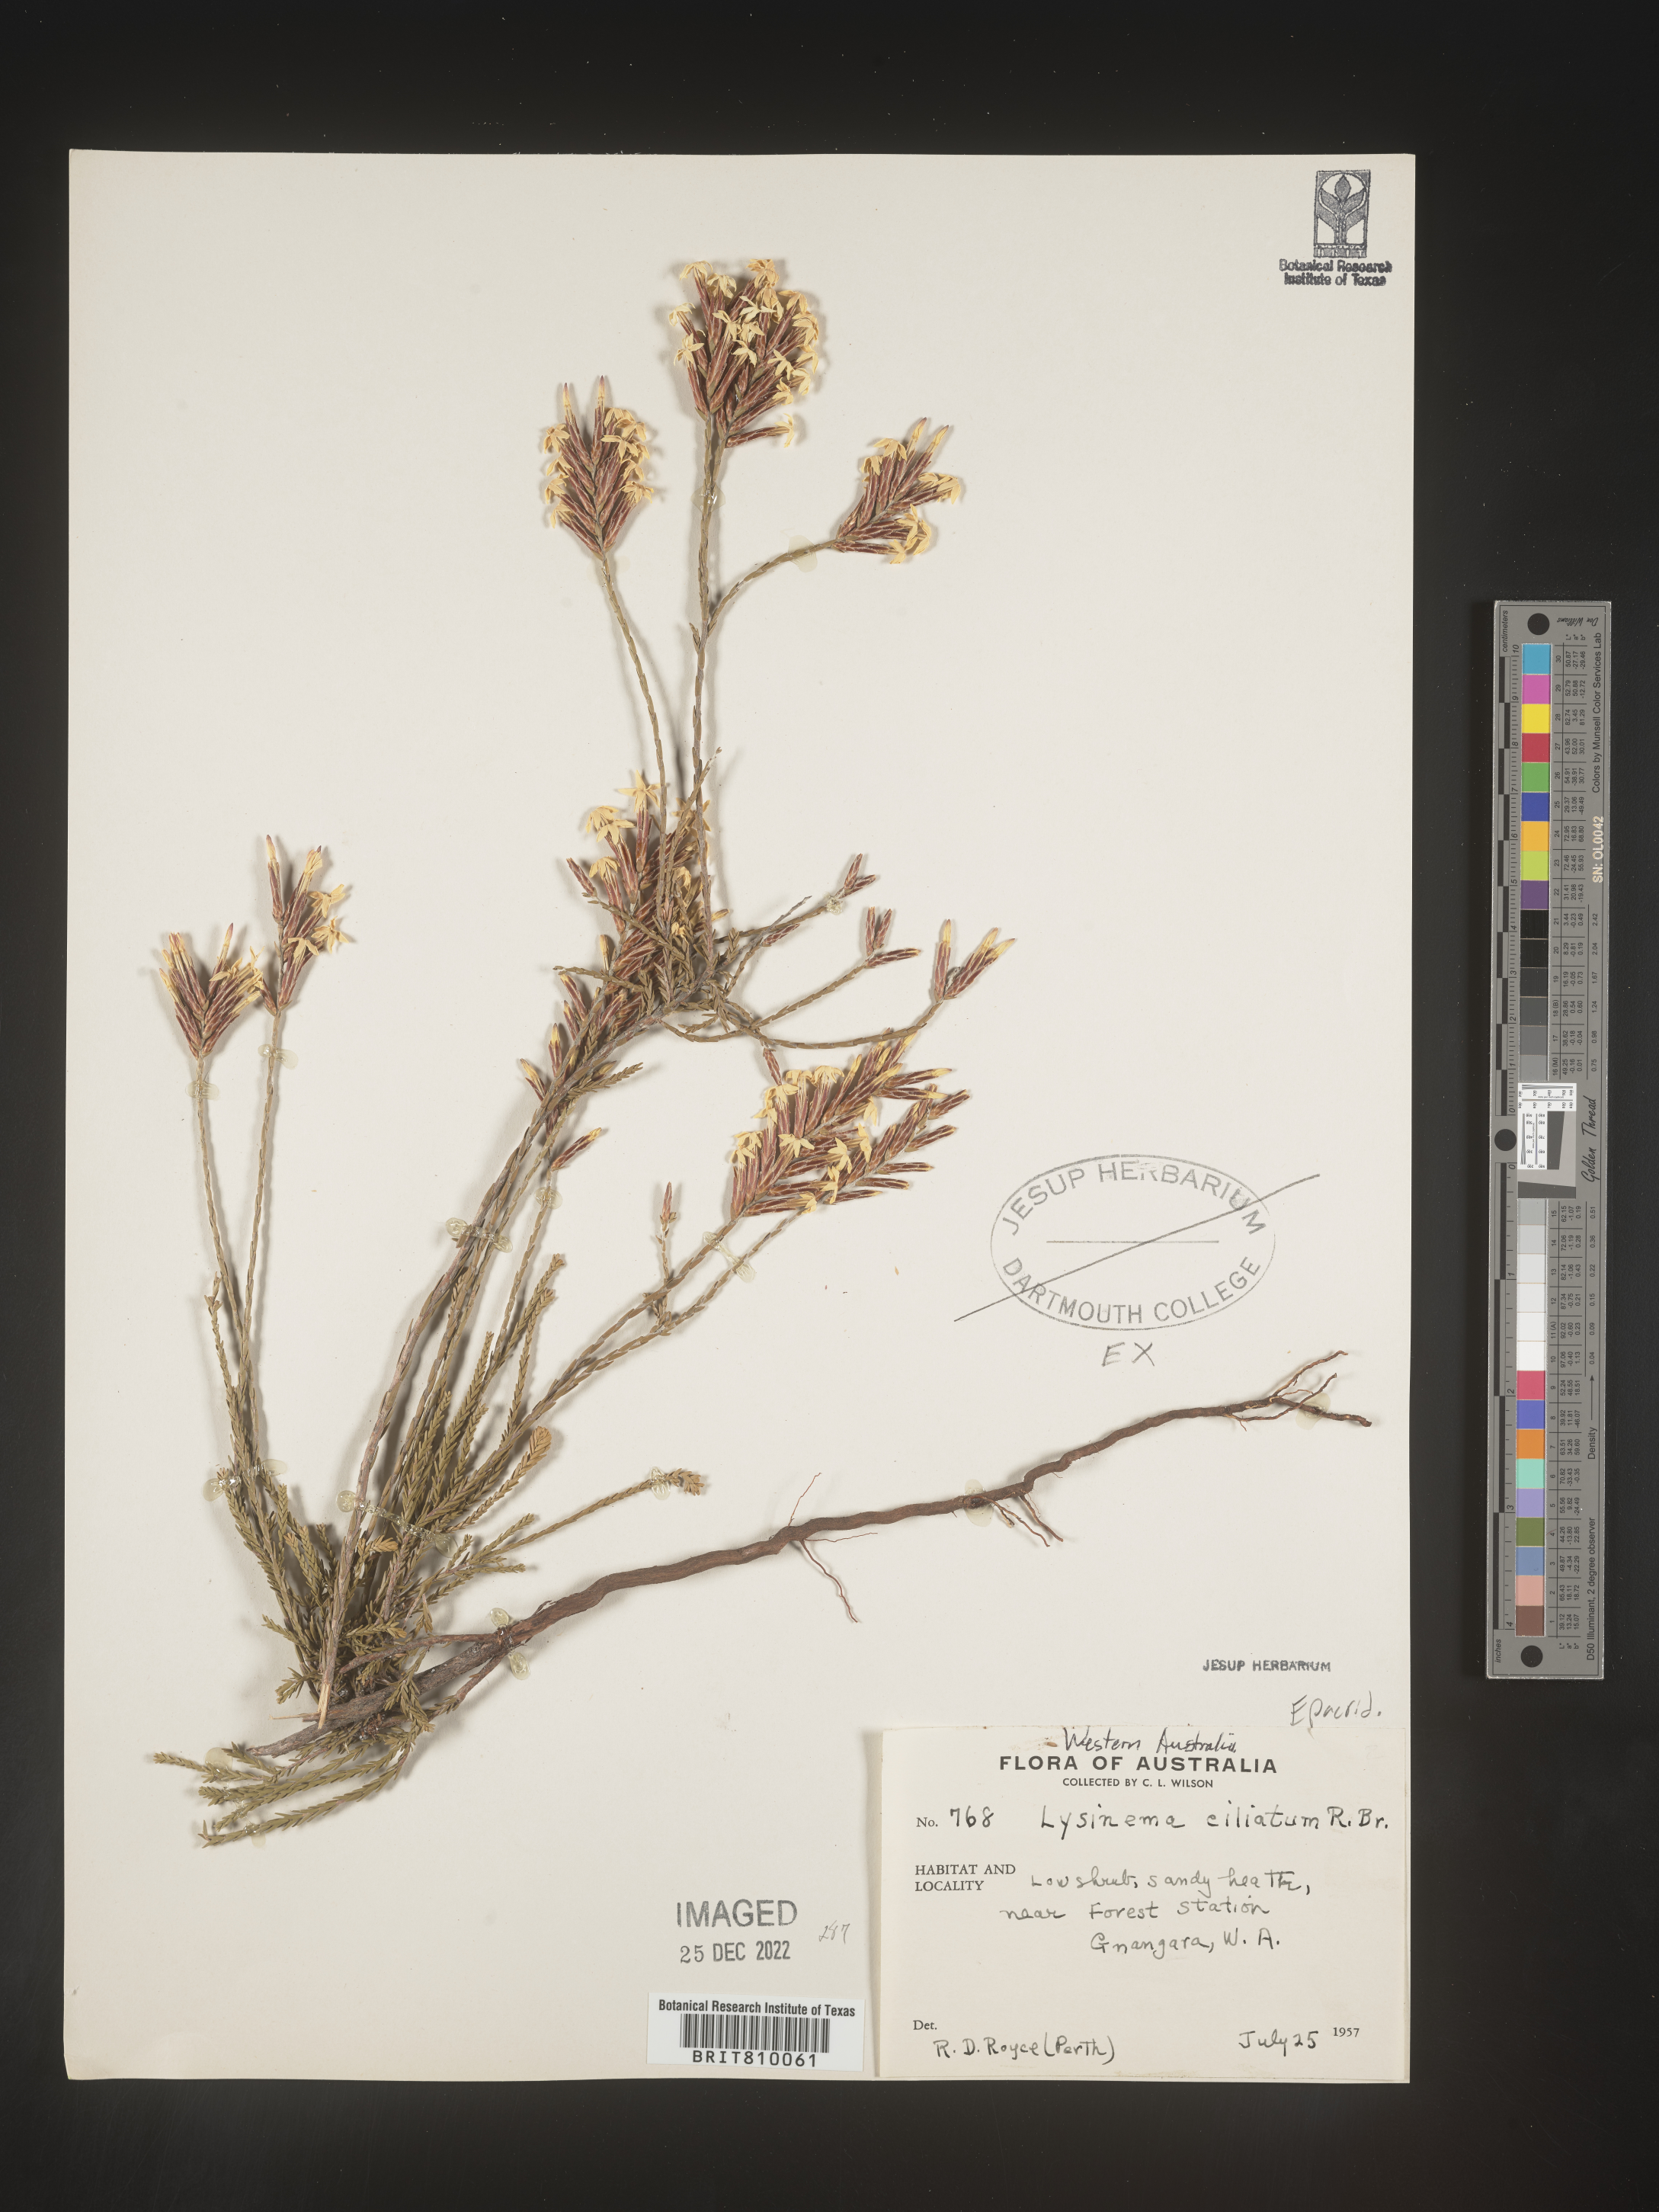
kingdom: Plantae
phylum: Tracheophyta
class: Magnoliopsida
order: Ericales
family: Ericaceae
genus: Lysinema
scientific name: Lysinema
